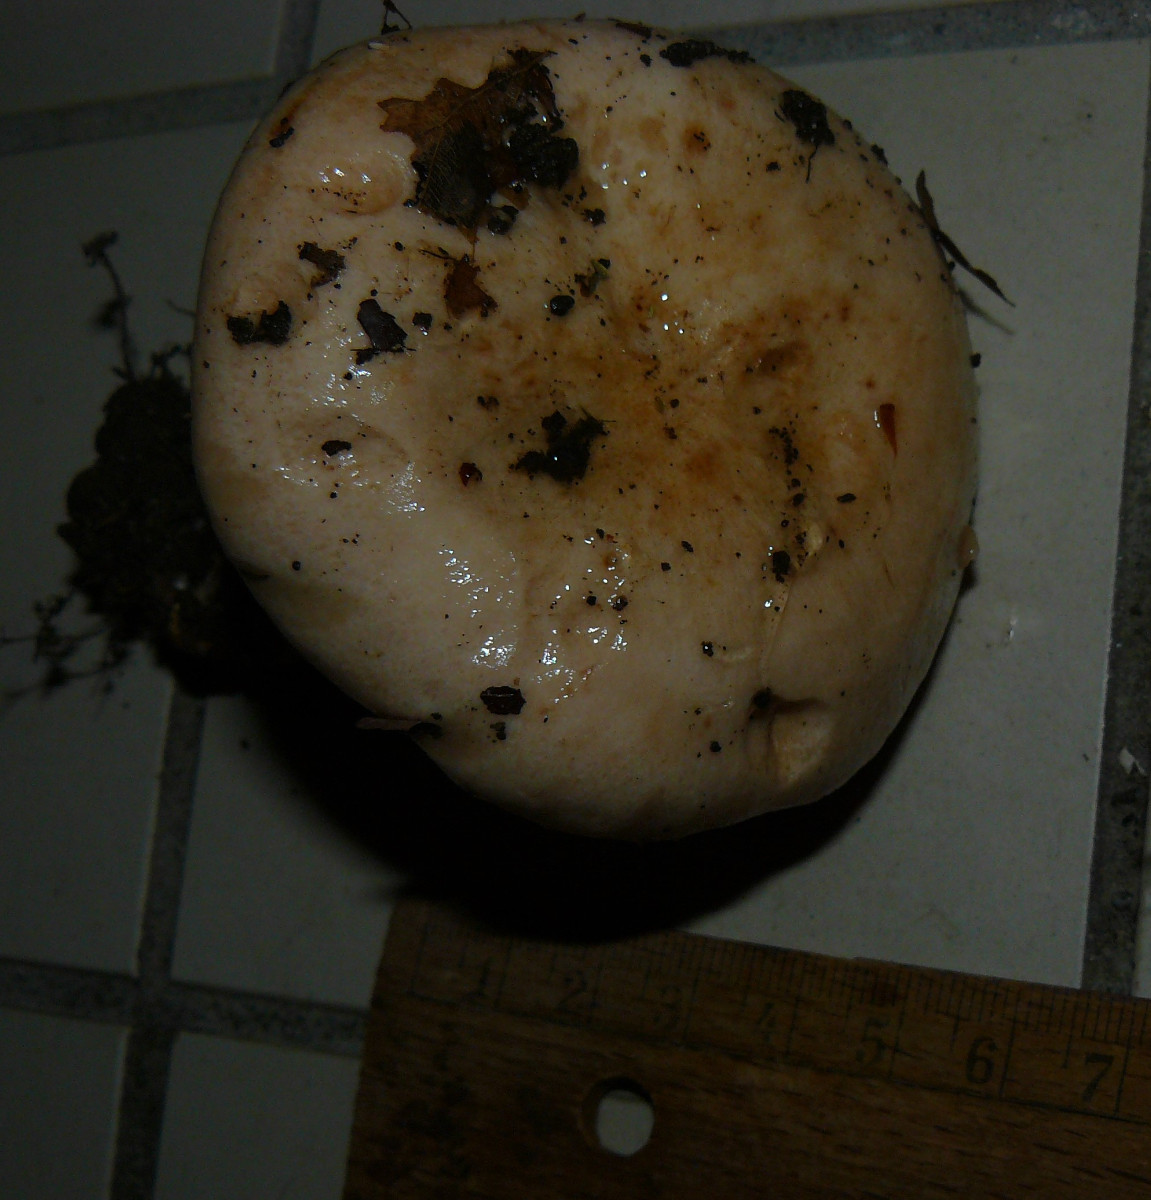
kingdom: Fungi
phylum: Basidiomycota
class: Agaricomycetes
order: Russulales
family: Russulaceae
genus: Lactarius
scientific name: Lactarius pallidus
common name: bleg mælkehat
